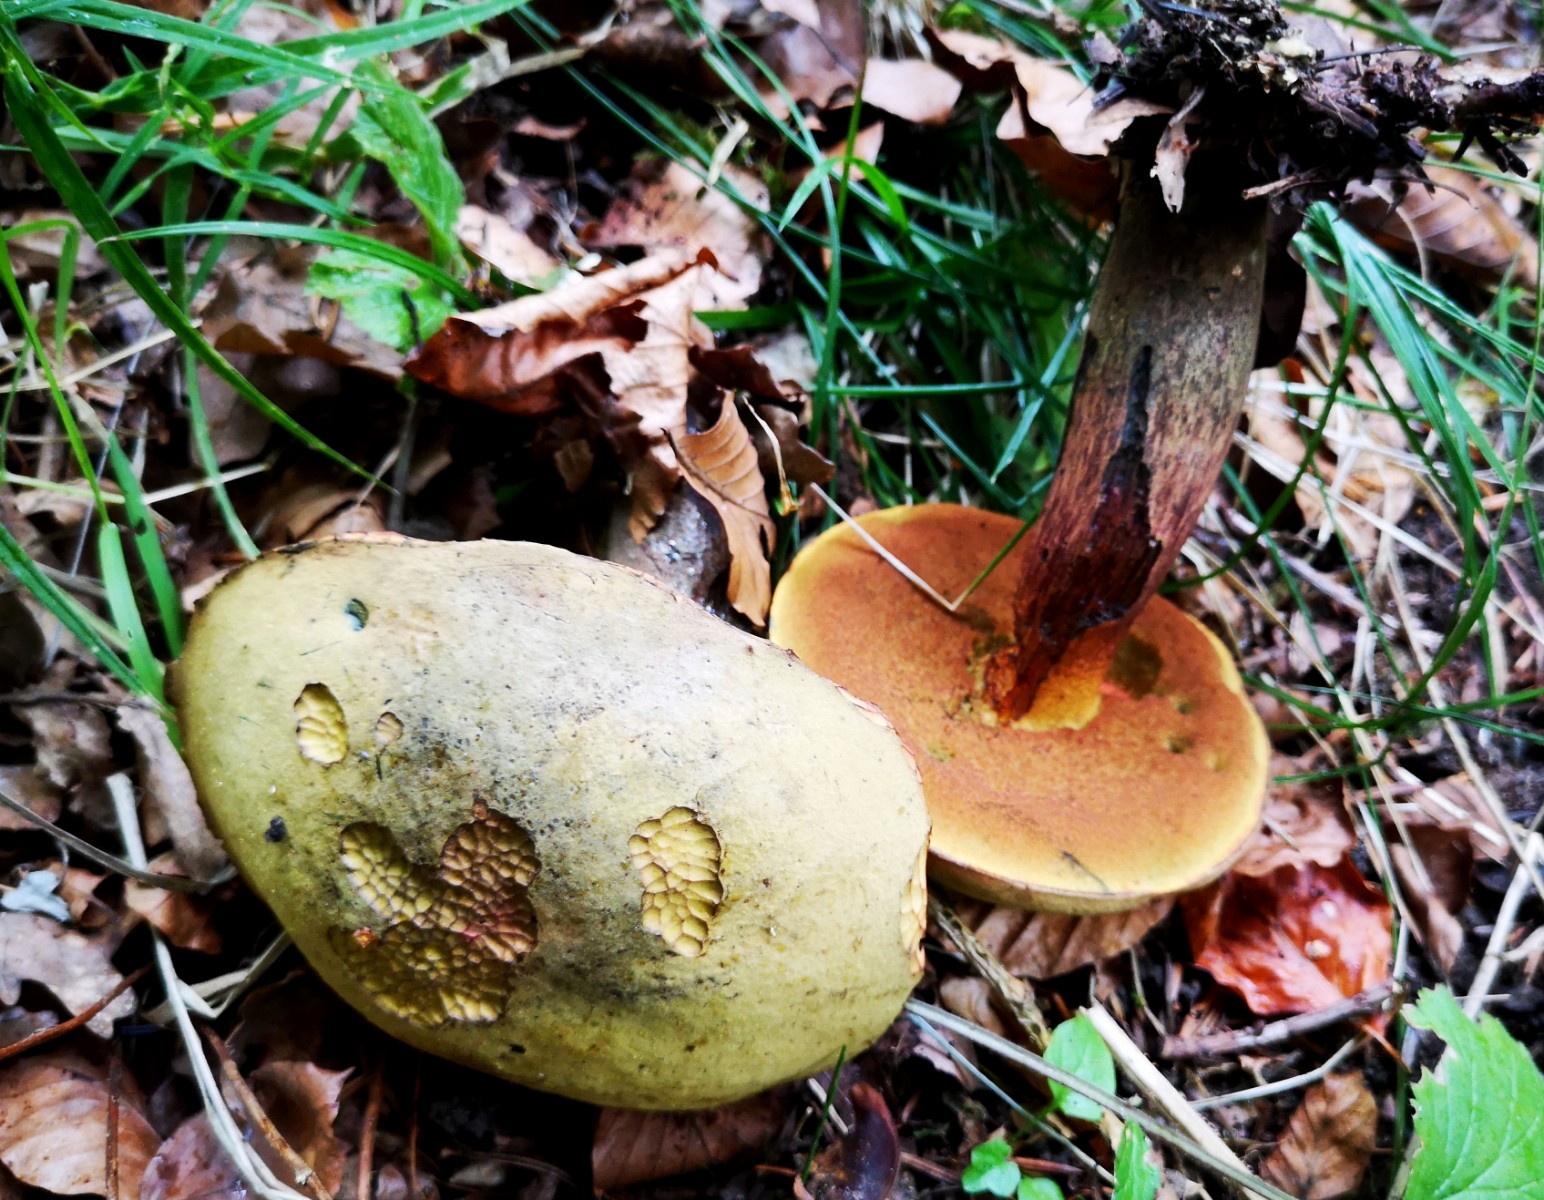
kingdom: Fungi
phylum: Basidiomycota
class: Agaricomycetes
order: Boletales
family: Boletaceae
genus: Suillellus
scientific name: Suillellus luridus
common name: netstokket indigorørhat
